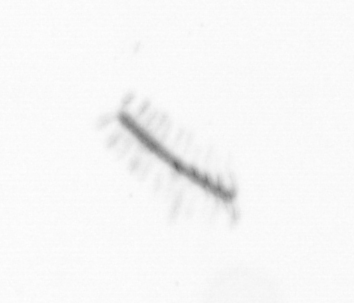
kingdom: Chromista
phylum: Ochrophyta
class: Bacillariophyceae
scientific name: Bacillariophyceae
